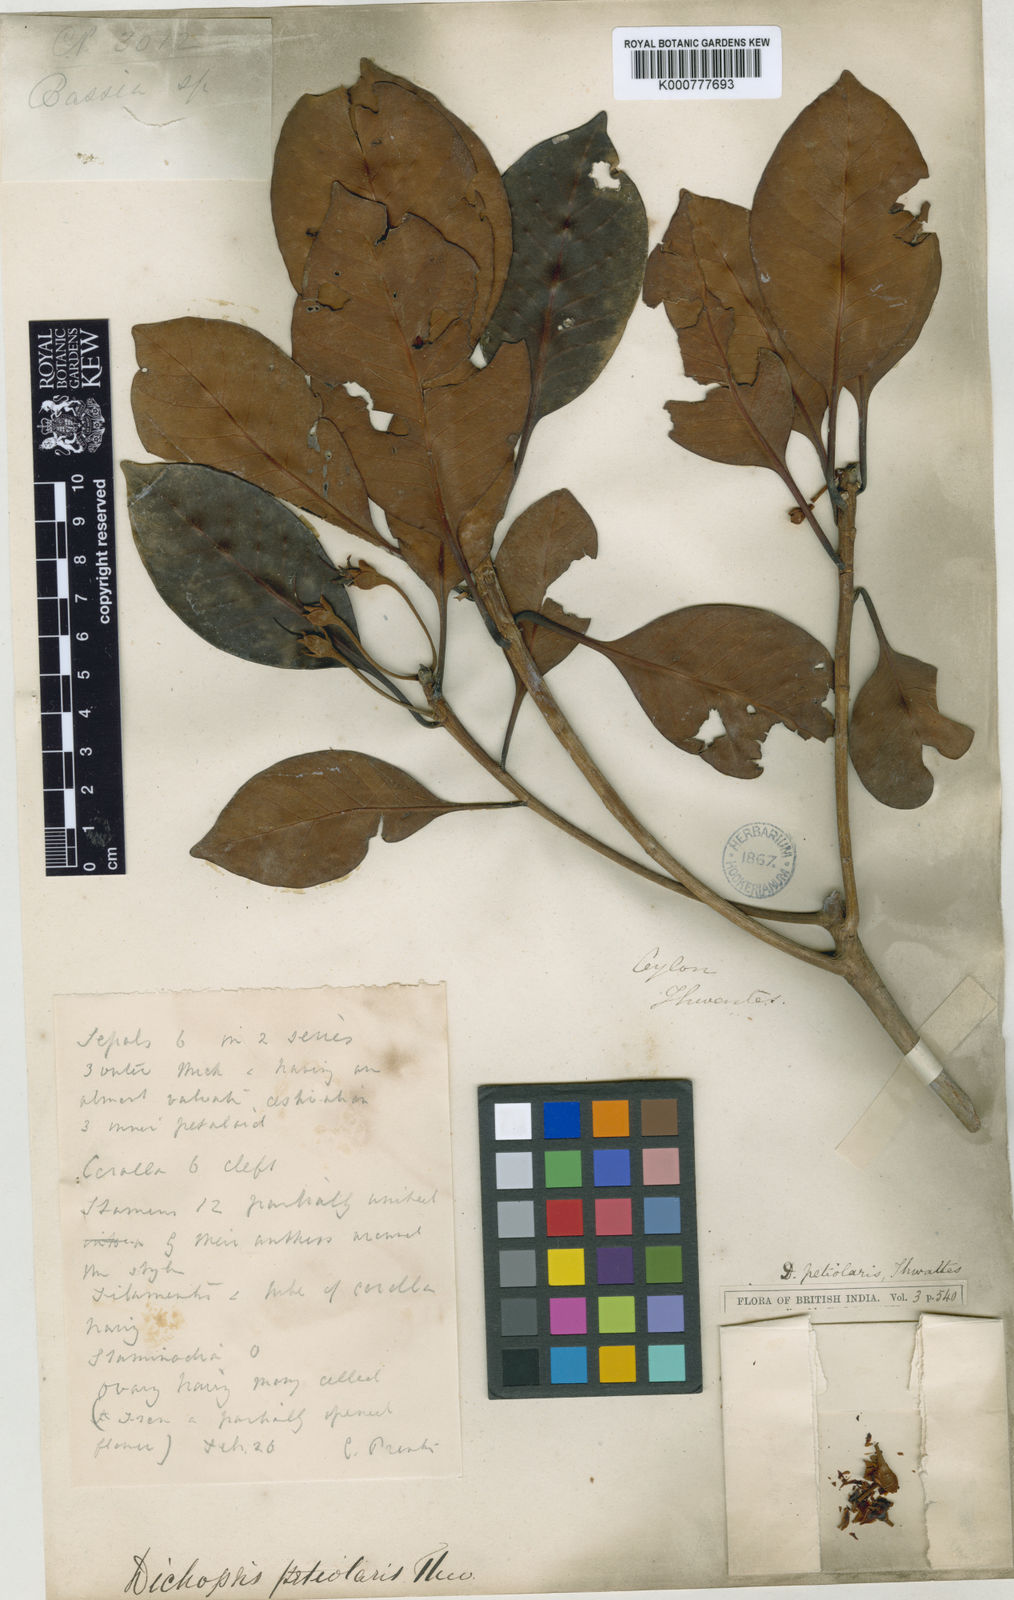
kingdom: Plantae
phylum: Tracheophyta
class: Magnoliopsida
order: Ericales
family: Sapotaceae
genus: Palaquium
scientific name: Palaquium petiolare
